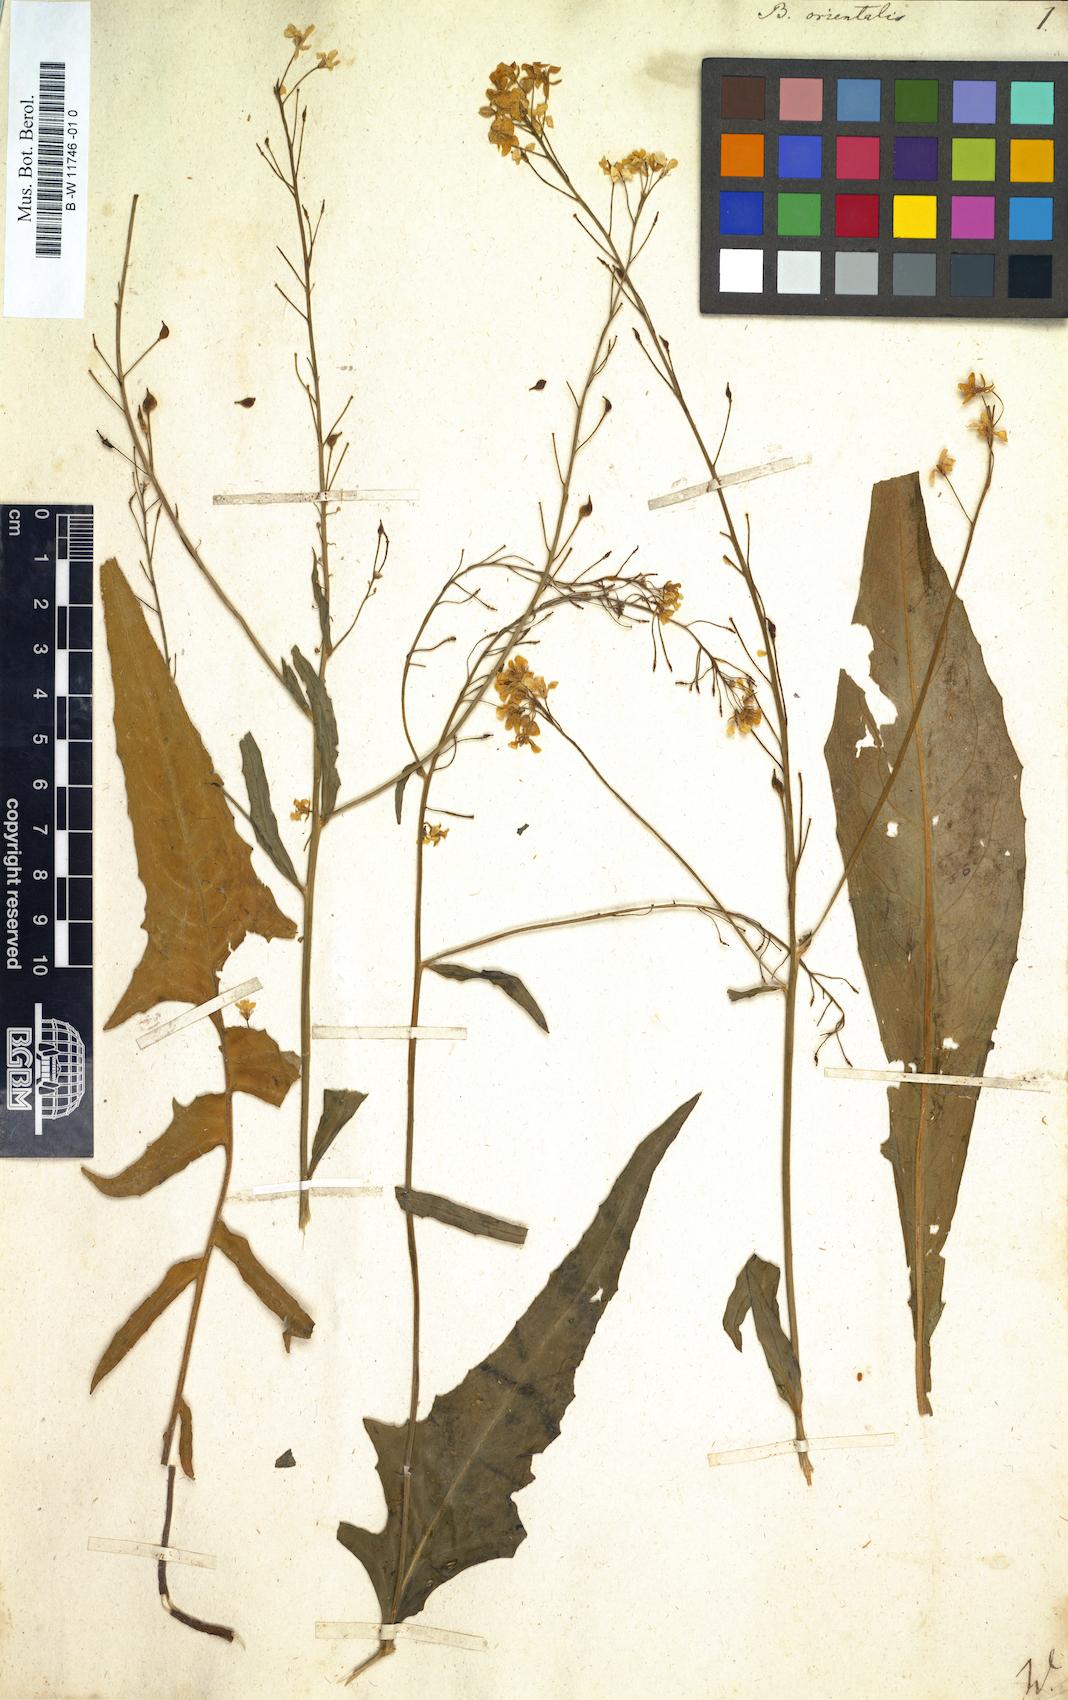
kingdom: Plantae
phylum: Tracheophyta
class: Magnoliopsida
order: Brassicales
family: Brassicaceae
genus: Bunias
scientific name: Bunias orientalis
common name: Warty-cabbage
